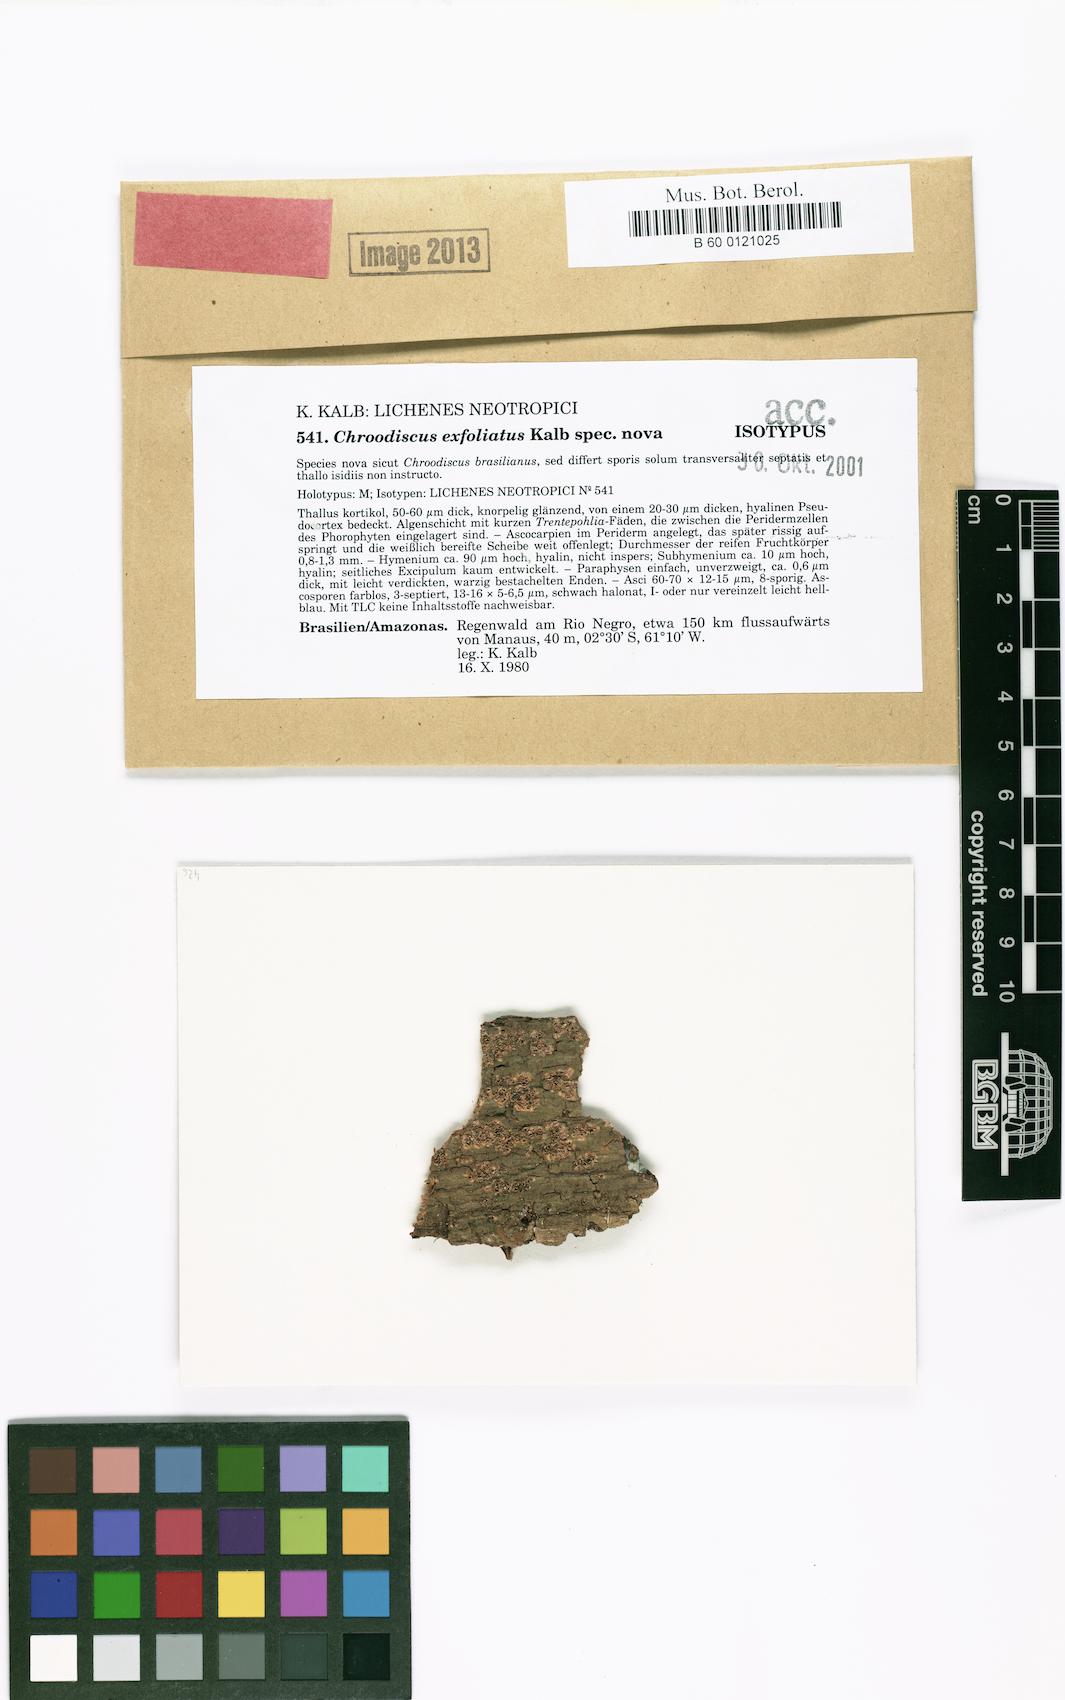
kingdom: Fungi
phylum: Ascomycota
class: Lecanoromycetes
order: Ostropales
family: Graphidaceae
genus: Chroodiscus
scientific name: Chroodiscus exfoliatus
